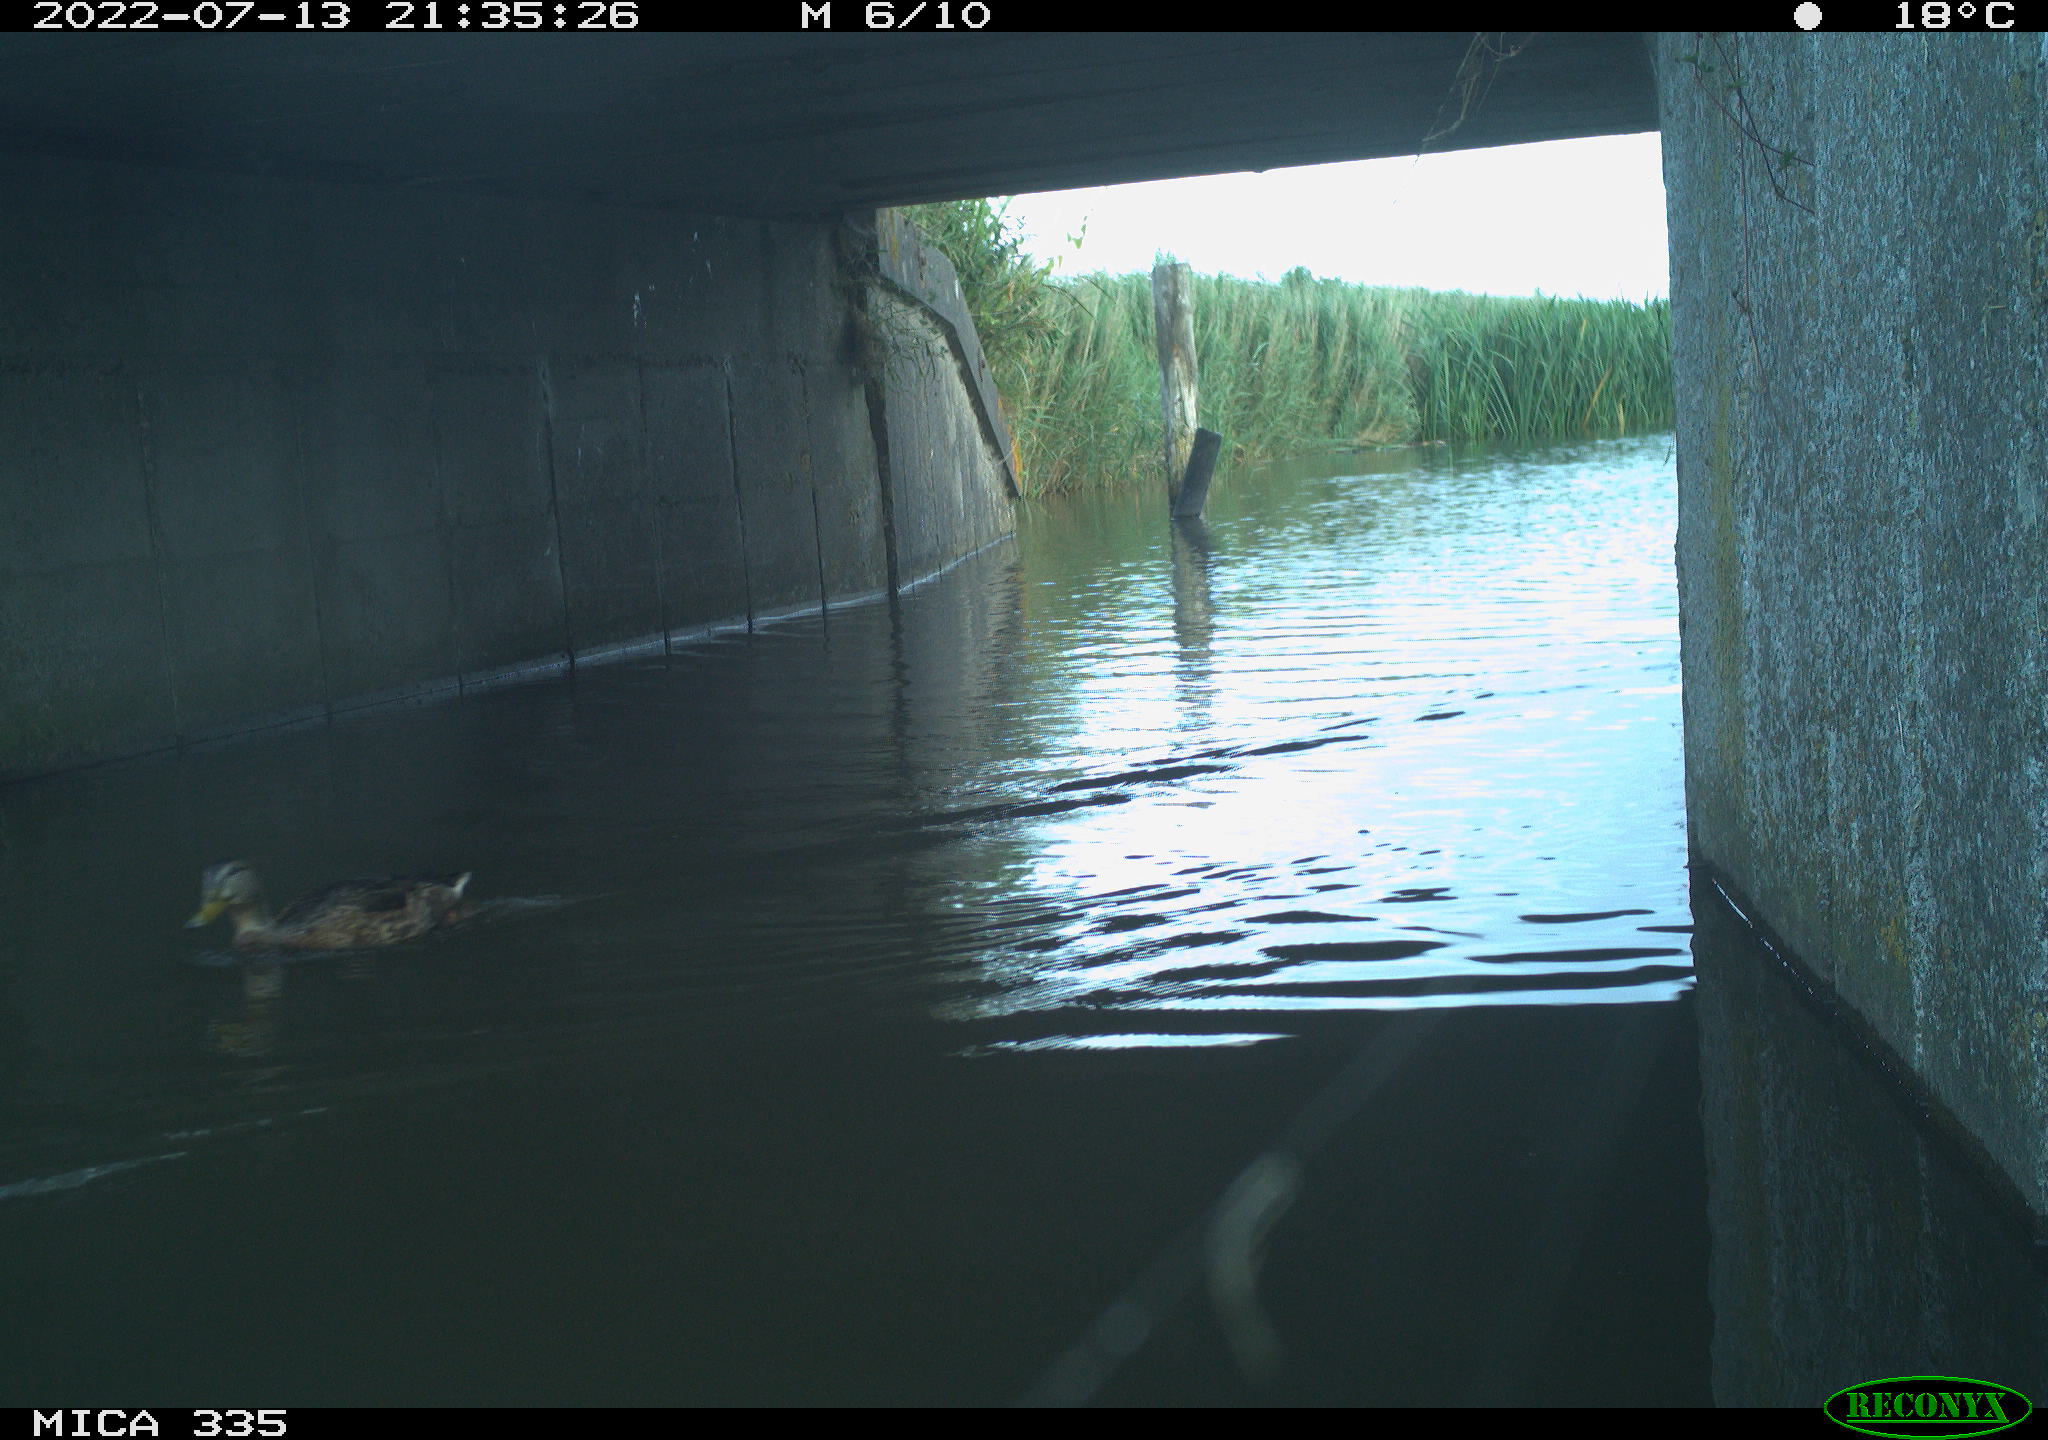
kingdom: Animalia
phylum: Chordata
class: Aves
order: Anseriformes
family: Anatidae
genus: Anas
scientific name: Anas platyrhynchos
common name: Mallard
